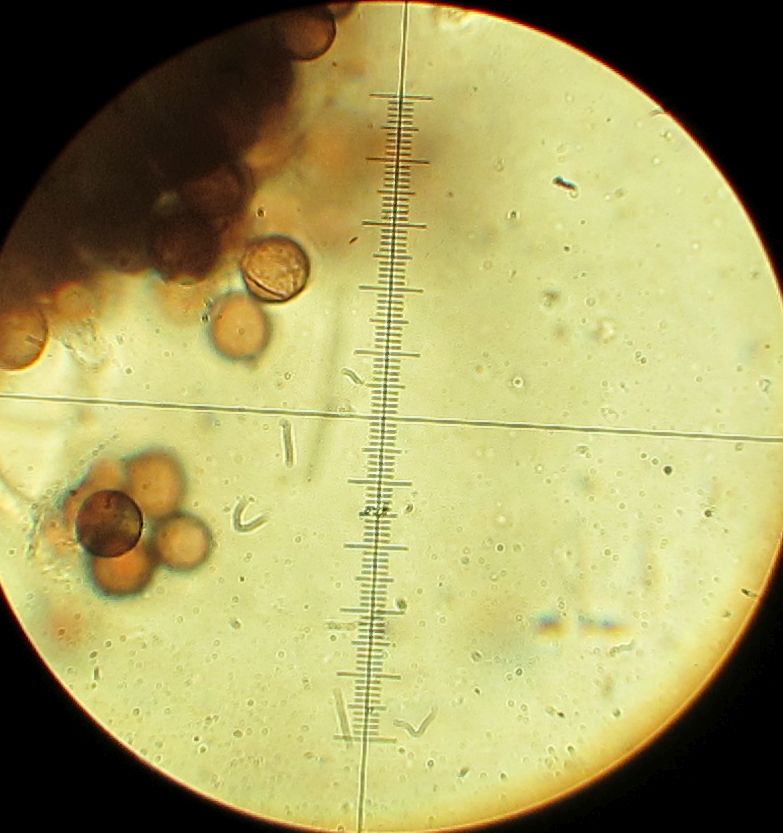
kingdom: Protozoa
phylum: Mycetozoa
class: Myxomycetes
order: Physarales
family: Didymiaceae
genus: Didymium
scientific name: Didymium squamulosum
